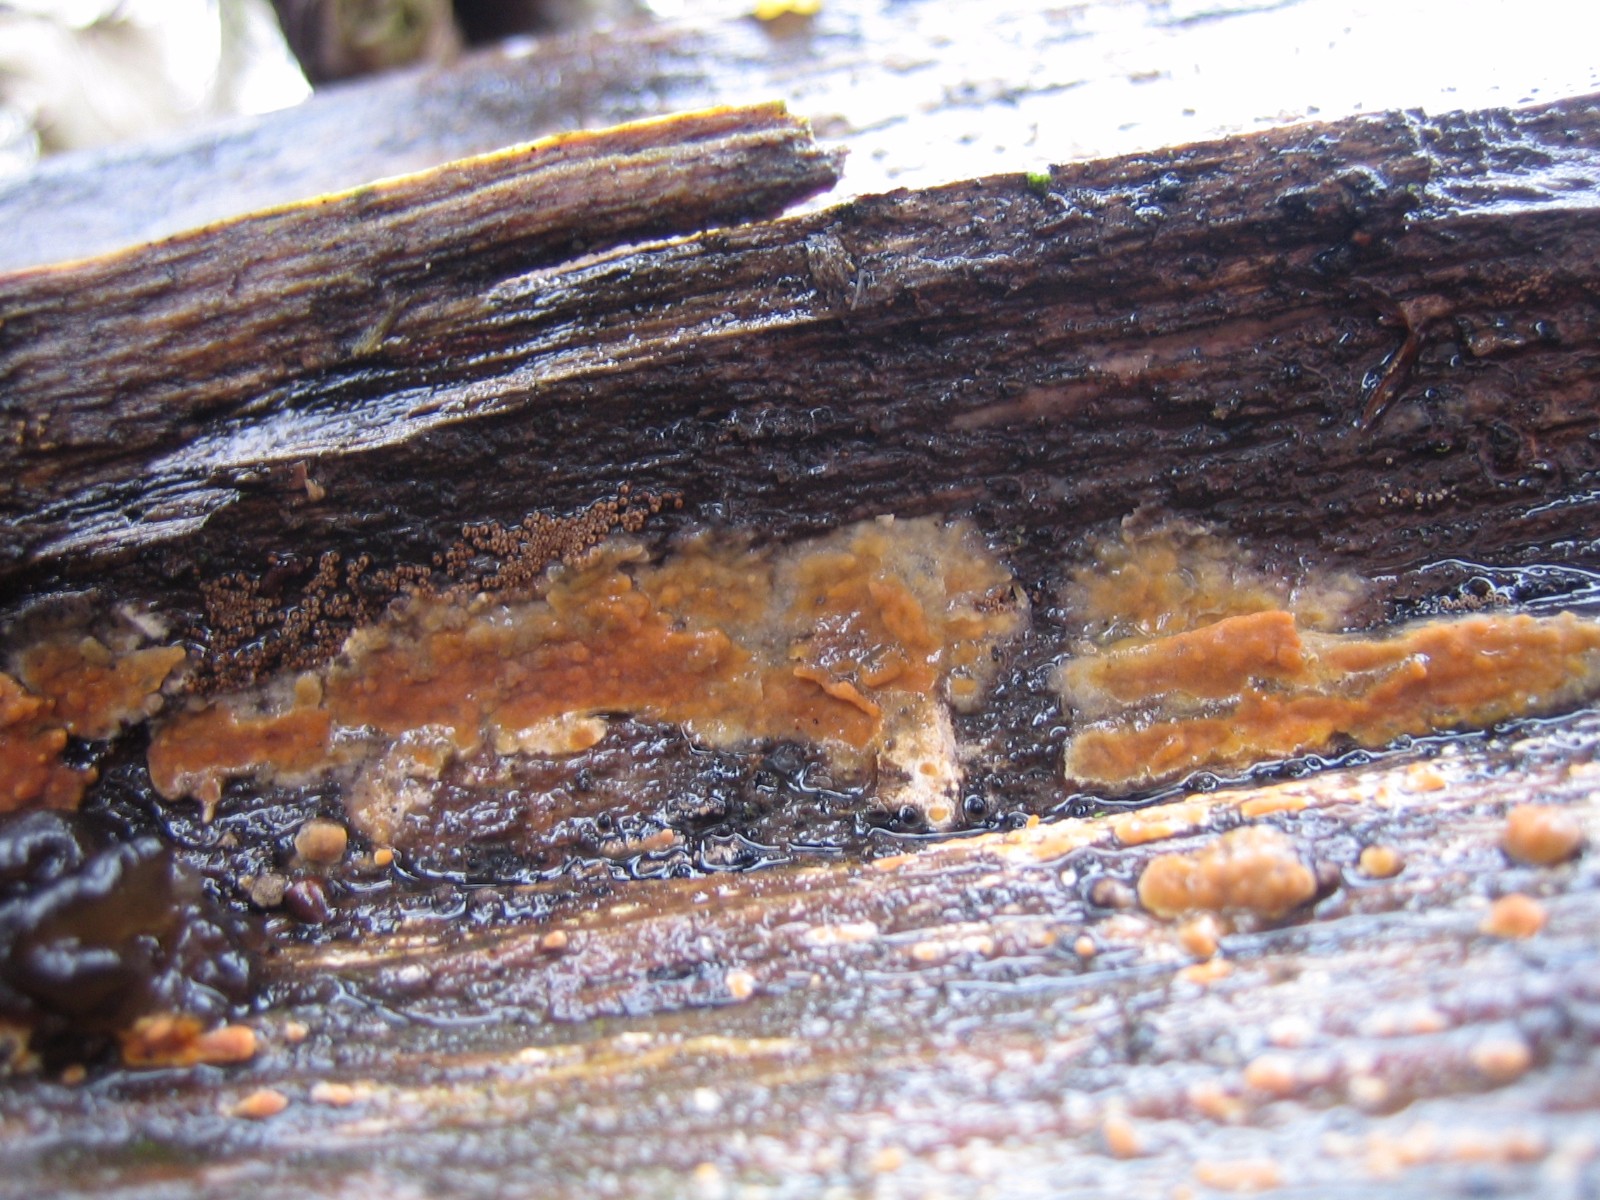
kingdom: Fungi
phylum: Basidiomycota
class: Agaricomycetes
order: Russulales
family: Peniophoraceae
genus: Peniophora
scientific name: Peniophora incarnata
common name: laksefarvet voksskind
